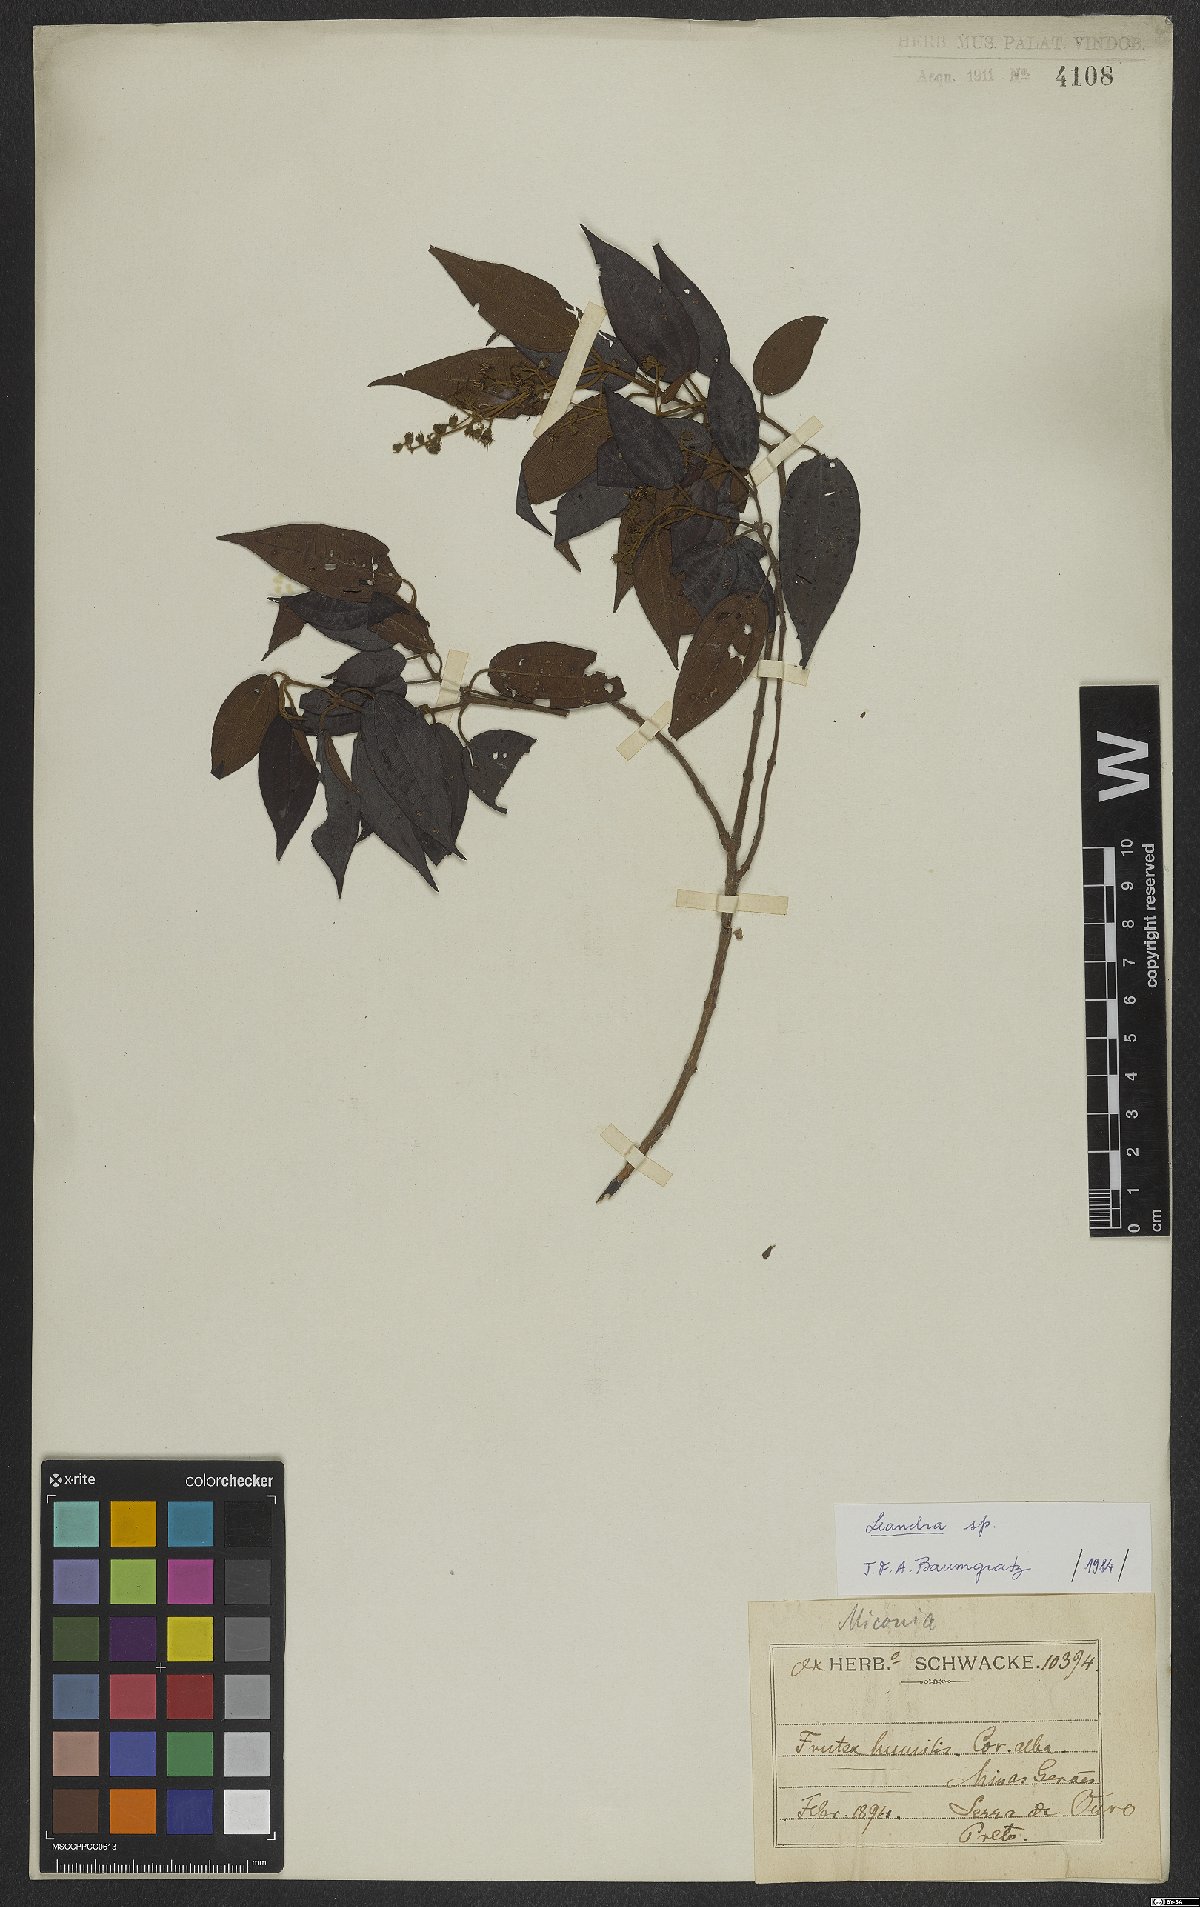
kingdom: Plantae
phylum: Tracheophyta
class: Magnoliopsida
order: Myrtales
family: Melastomataceae
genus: Miconia
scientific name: Miconia
